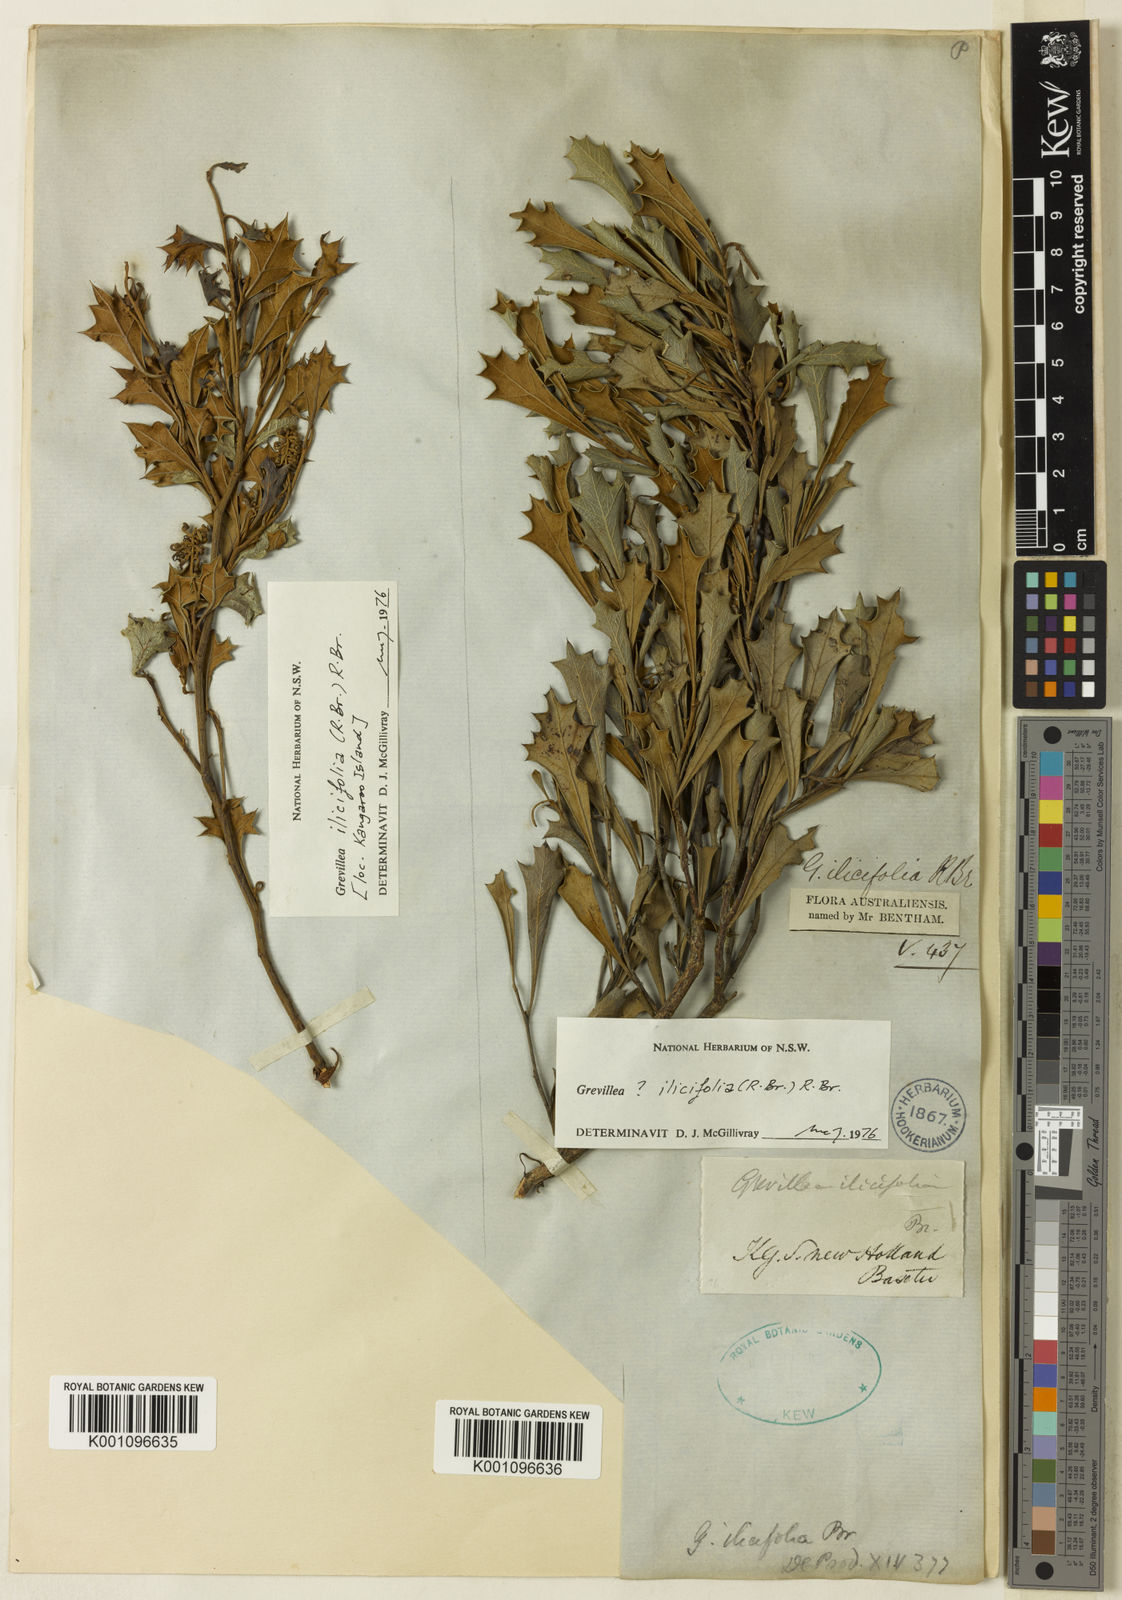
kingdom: Plantae
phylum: Tracheophyta
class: Magnoliopsida
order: Proteales
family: Proteaceae
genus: Grevillea
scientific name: Grevillea dilatata
